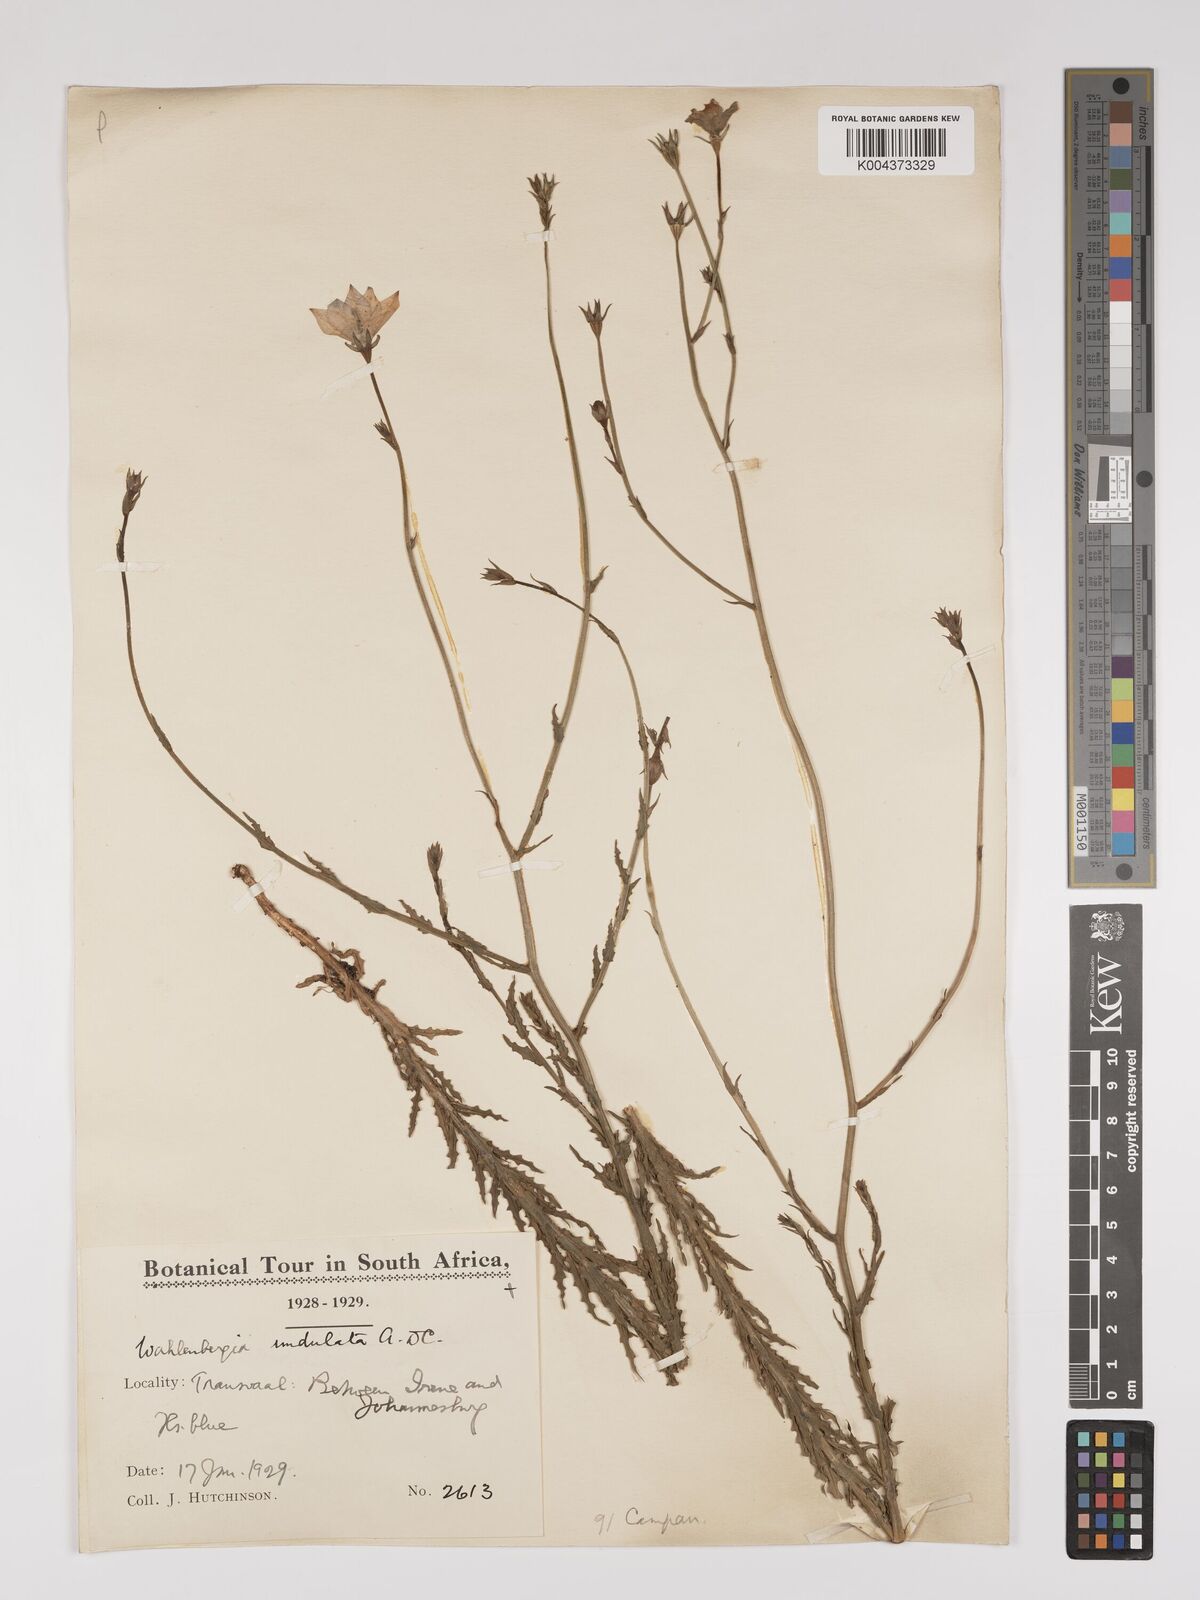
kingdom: Plantae
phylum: Tracheophyta
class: Magnoliopsida
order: Asterales
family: Campanulaceae
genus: Wahlenbergia
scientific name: Wahlenbergia undulata
